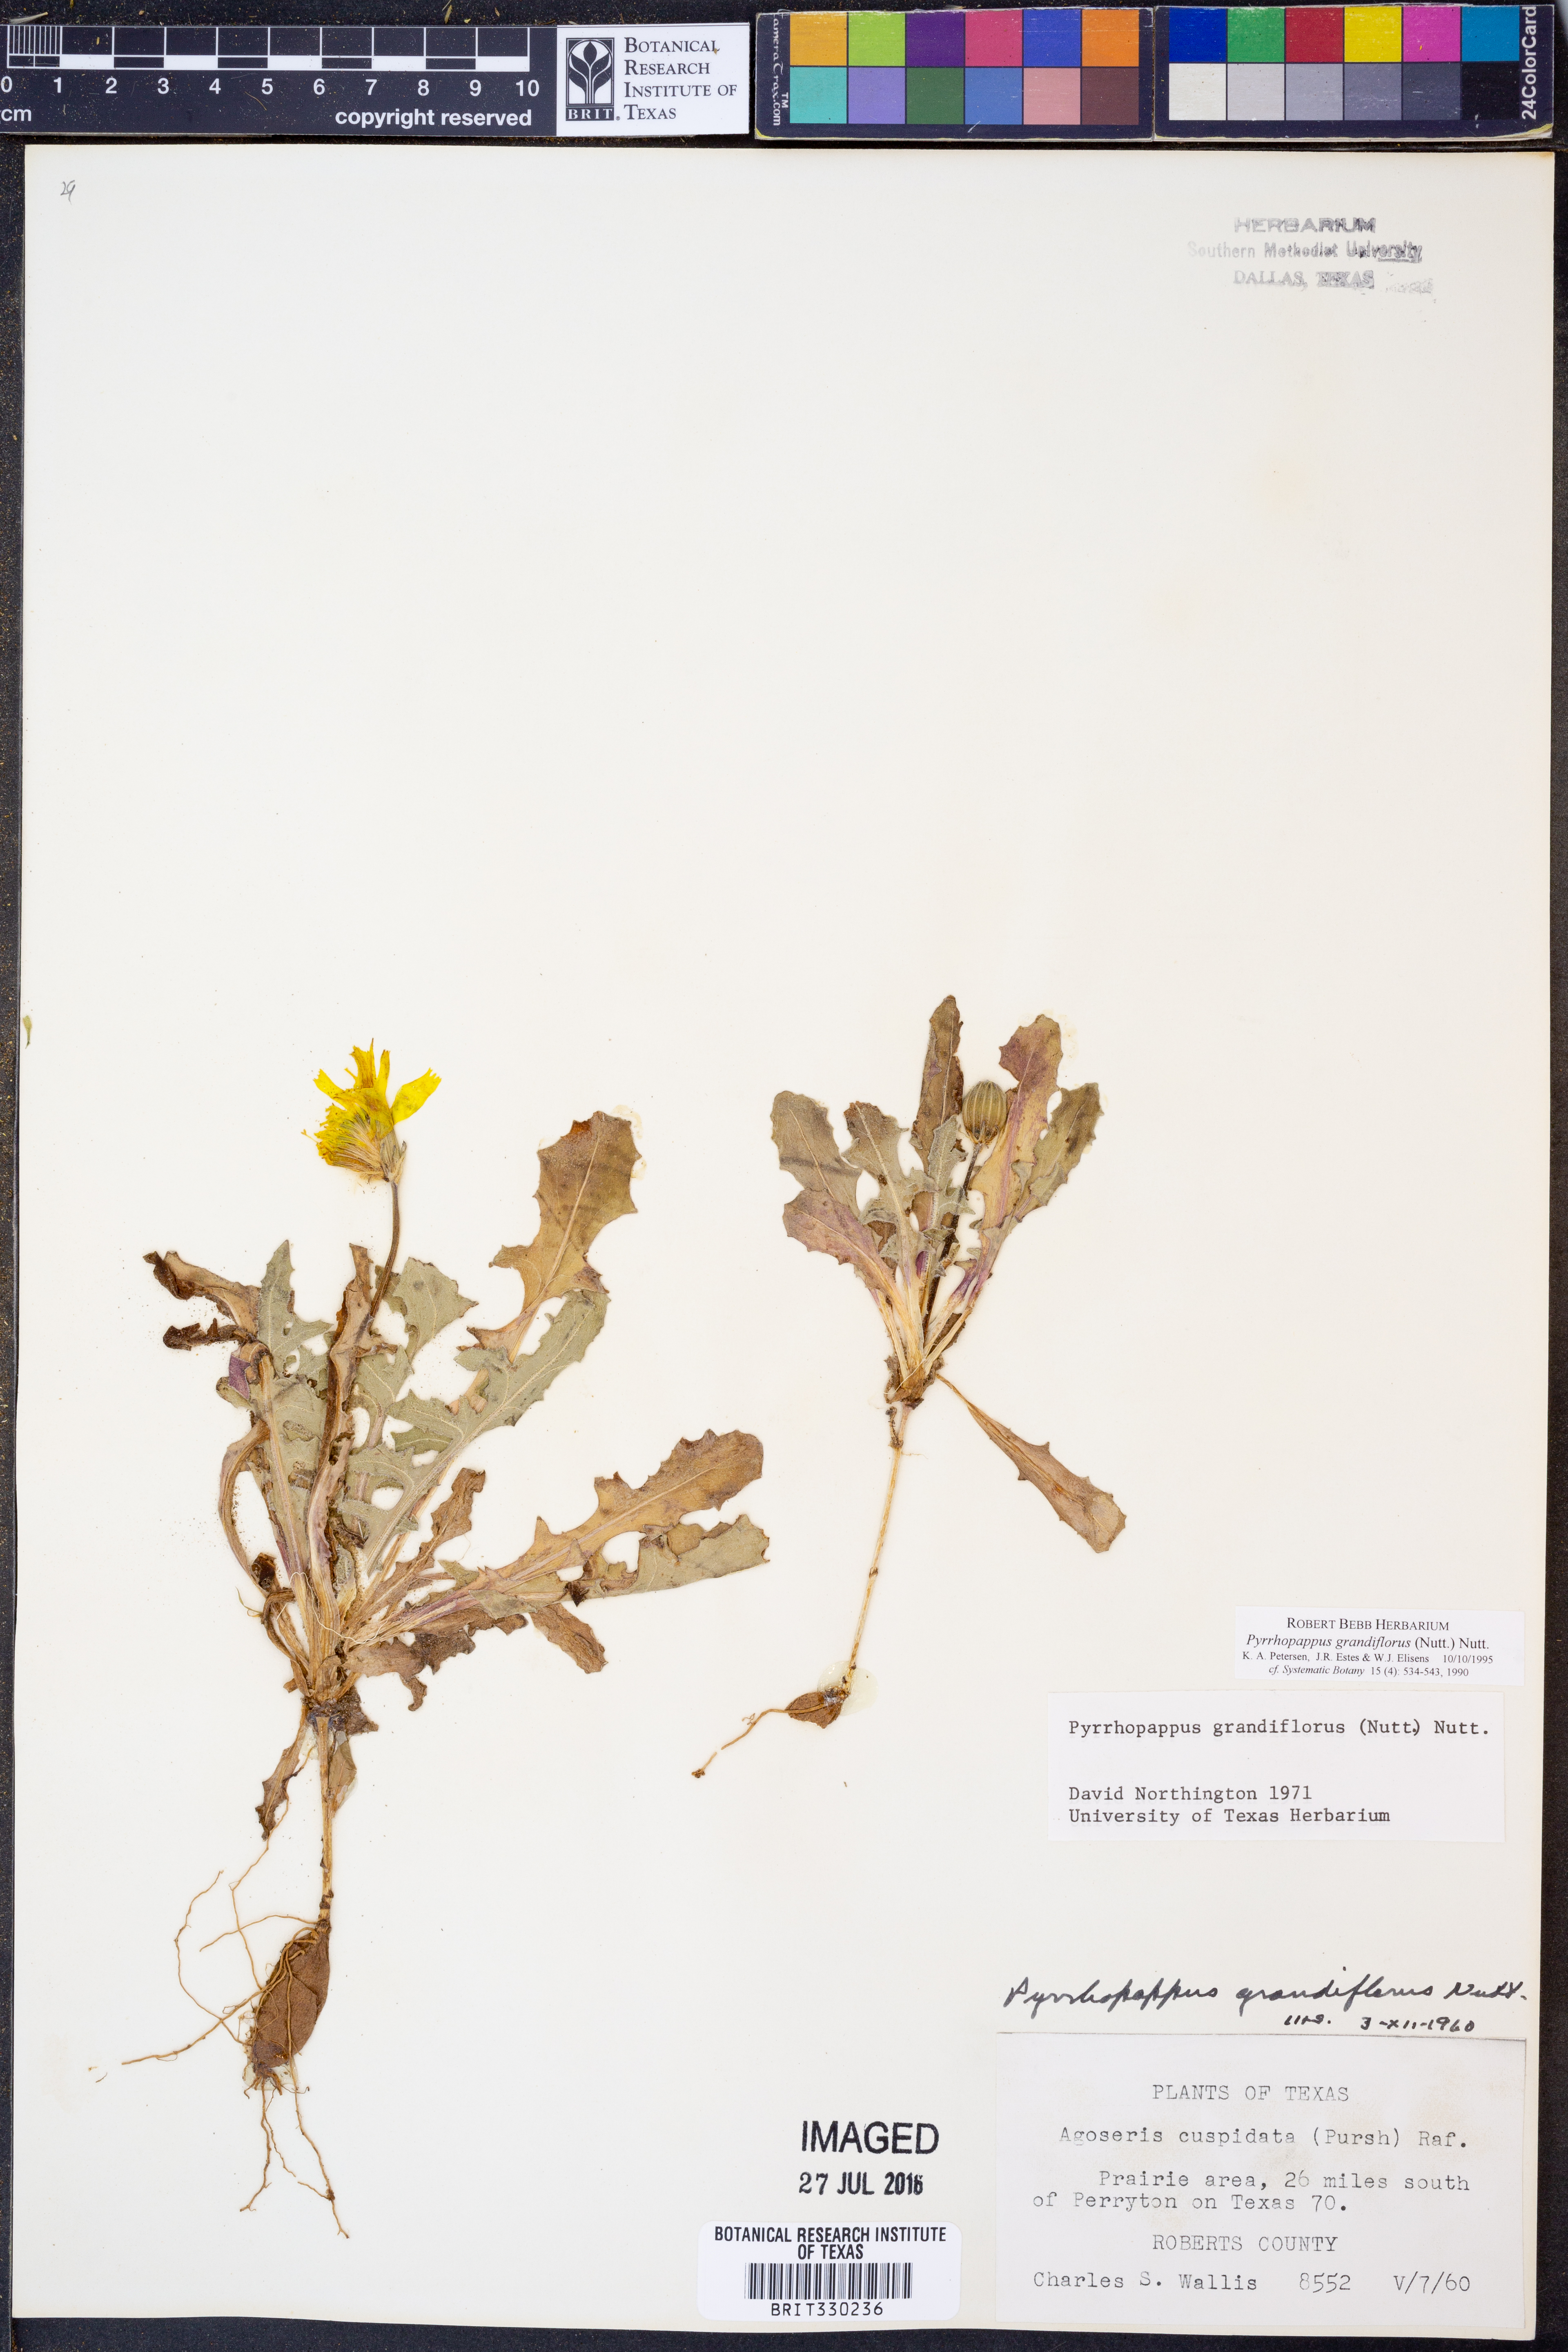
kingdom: Plantae
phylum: Tracheophyta
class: Magnoliopsida
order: Asterales
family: Asteraceae
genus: Pyrrhopappus
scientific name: Pyrrhopappus grandiflorus
